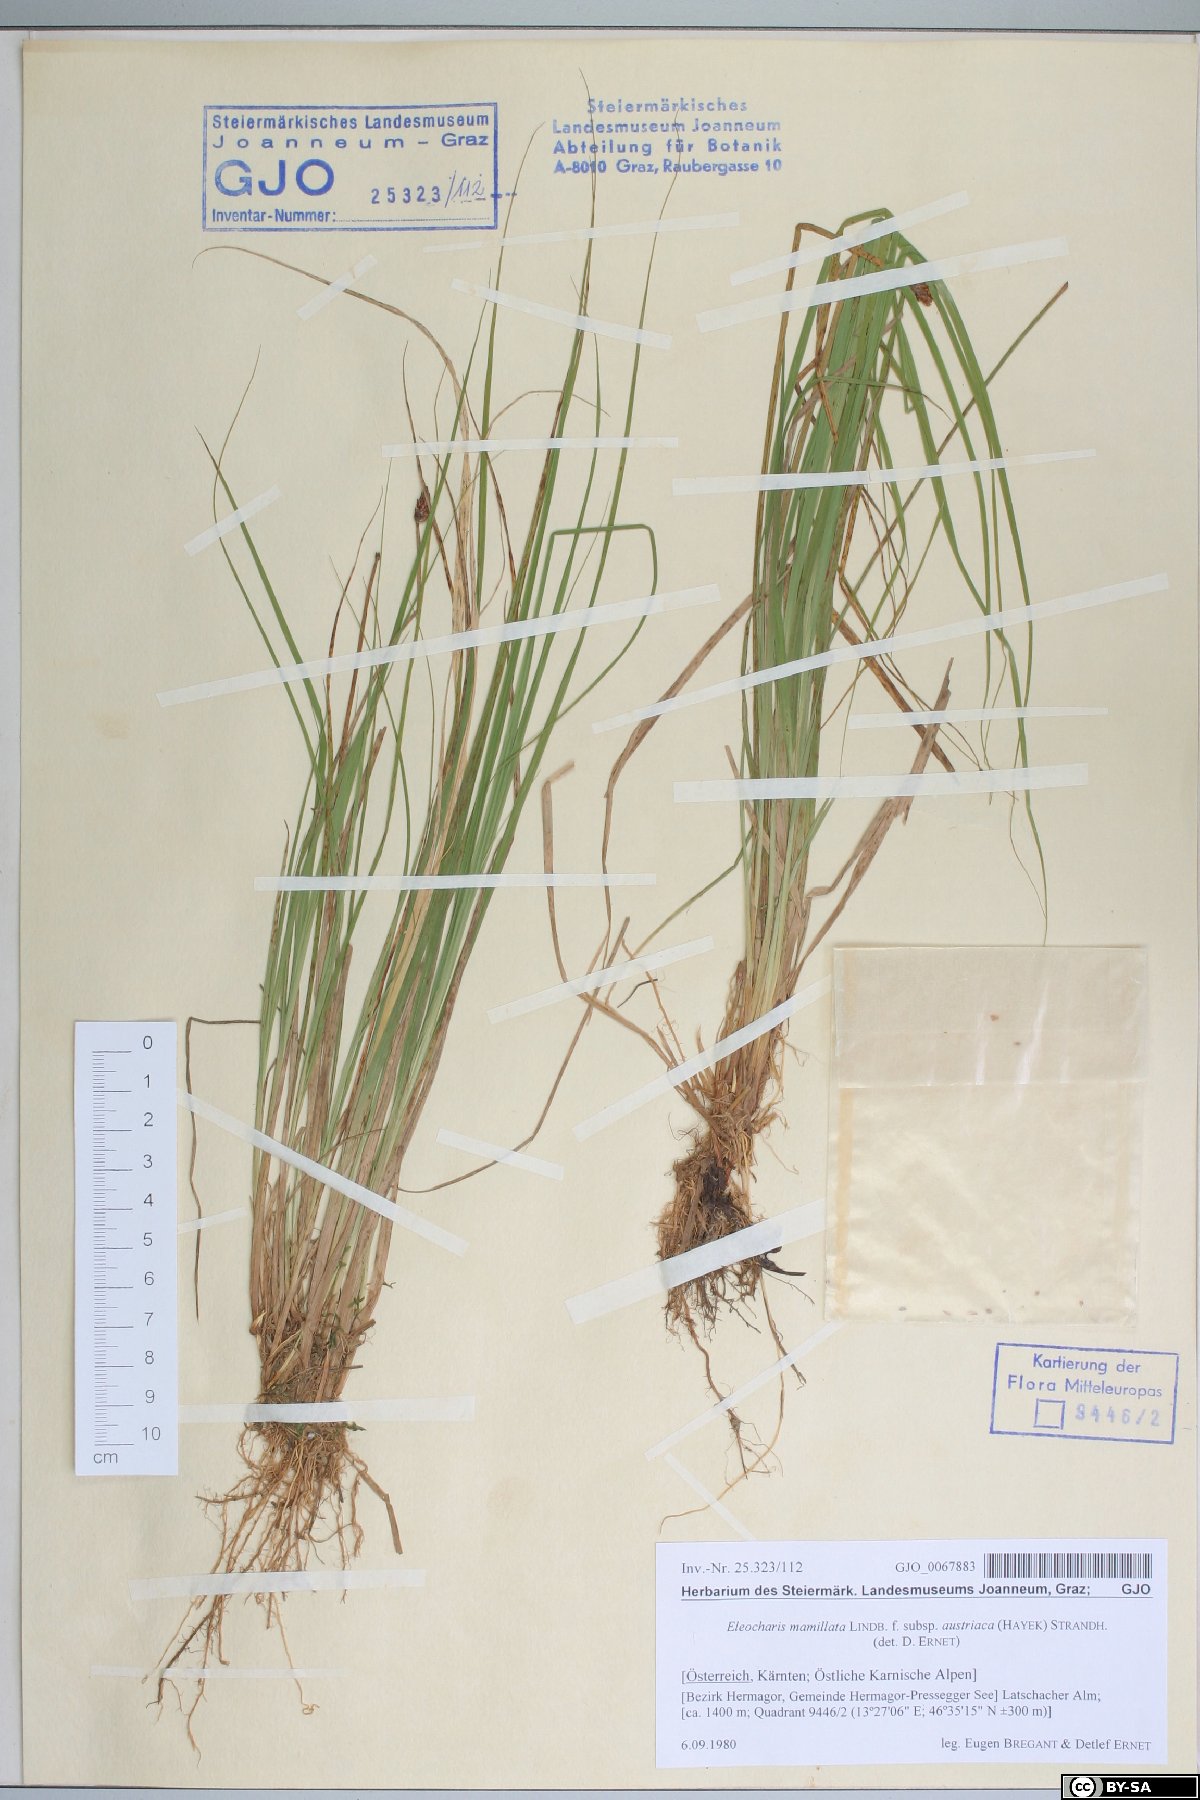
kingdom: Plantae
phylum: Tracheophyta
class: Liliopsida
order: Poales
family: Cyperaceae
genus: Eleocharis
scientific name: Eleocharis mamillata
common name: Northern spike-rush
